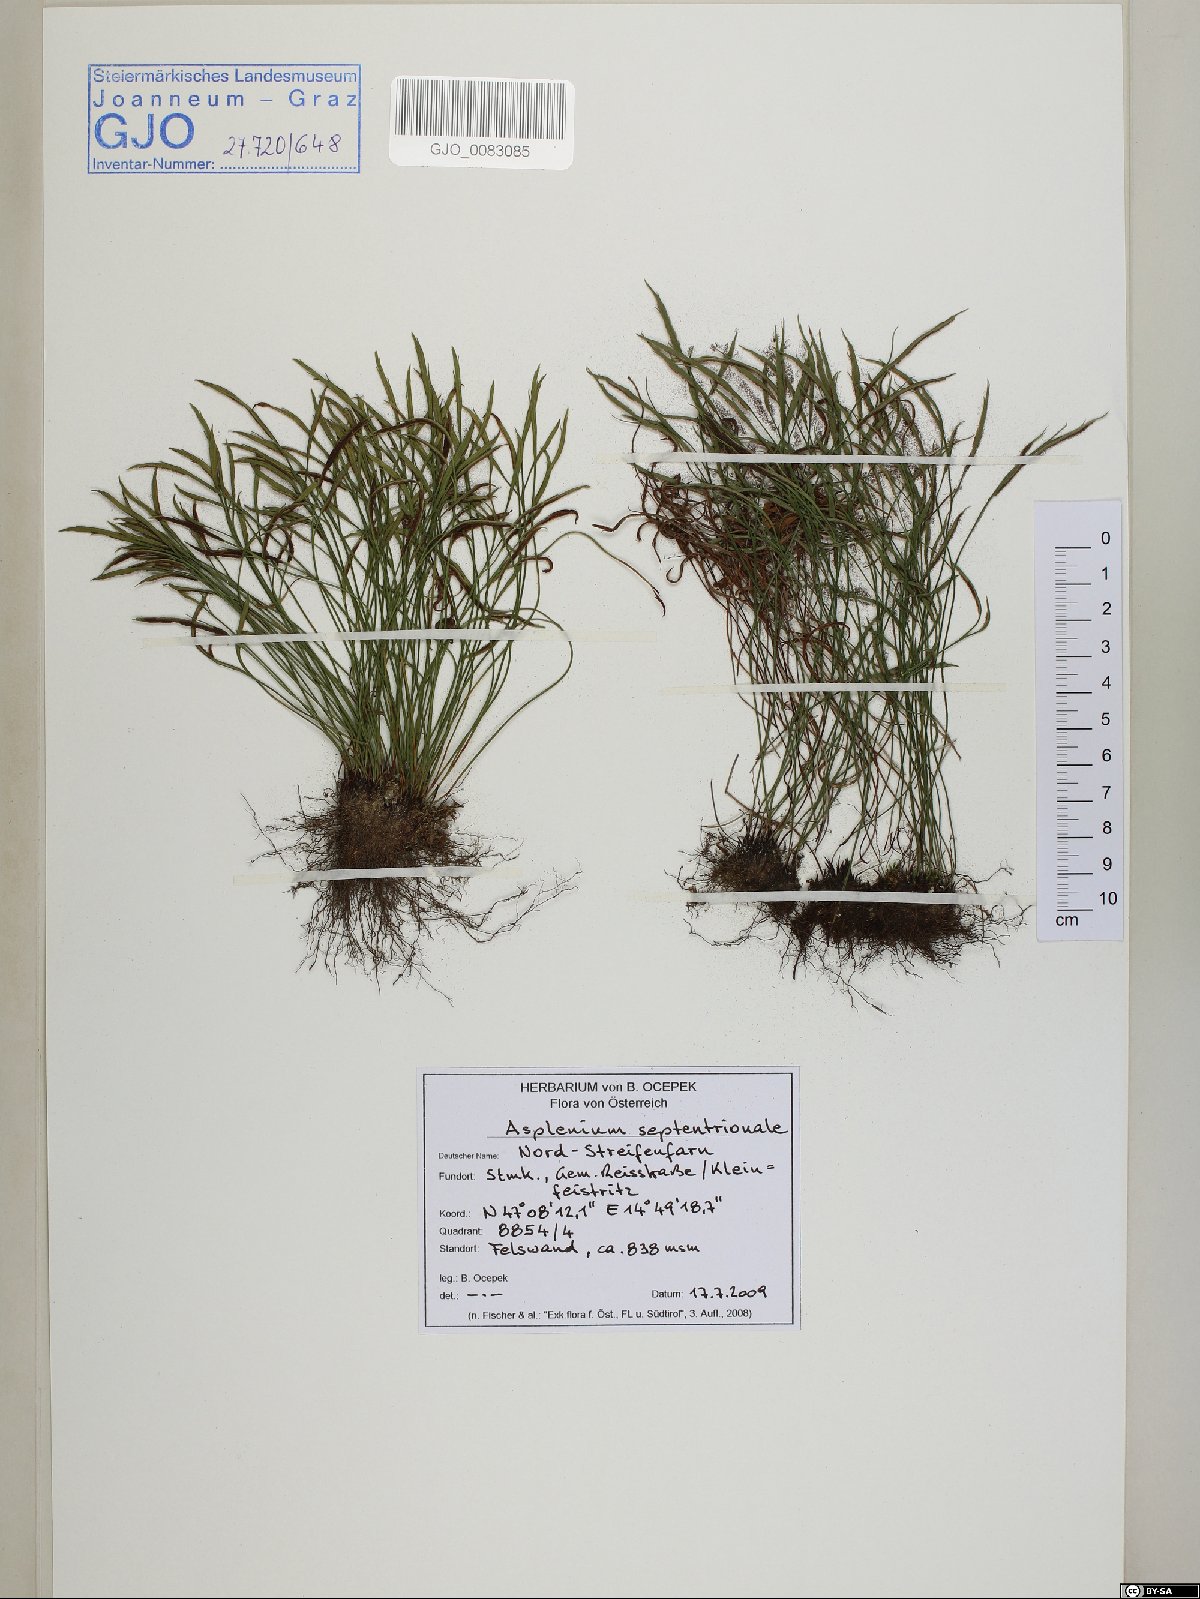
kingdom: Plantae
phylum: Tracheophyta
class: Polypodiopsida
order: Polypodiales
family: Aspleniaceae
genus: Asplenium
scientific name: Asplenium septentrionale
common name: Forked spleenwort
